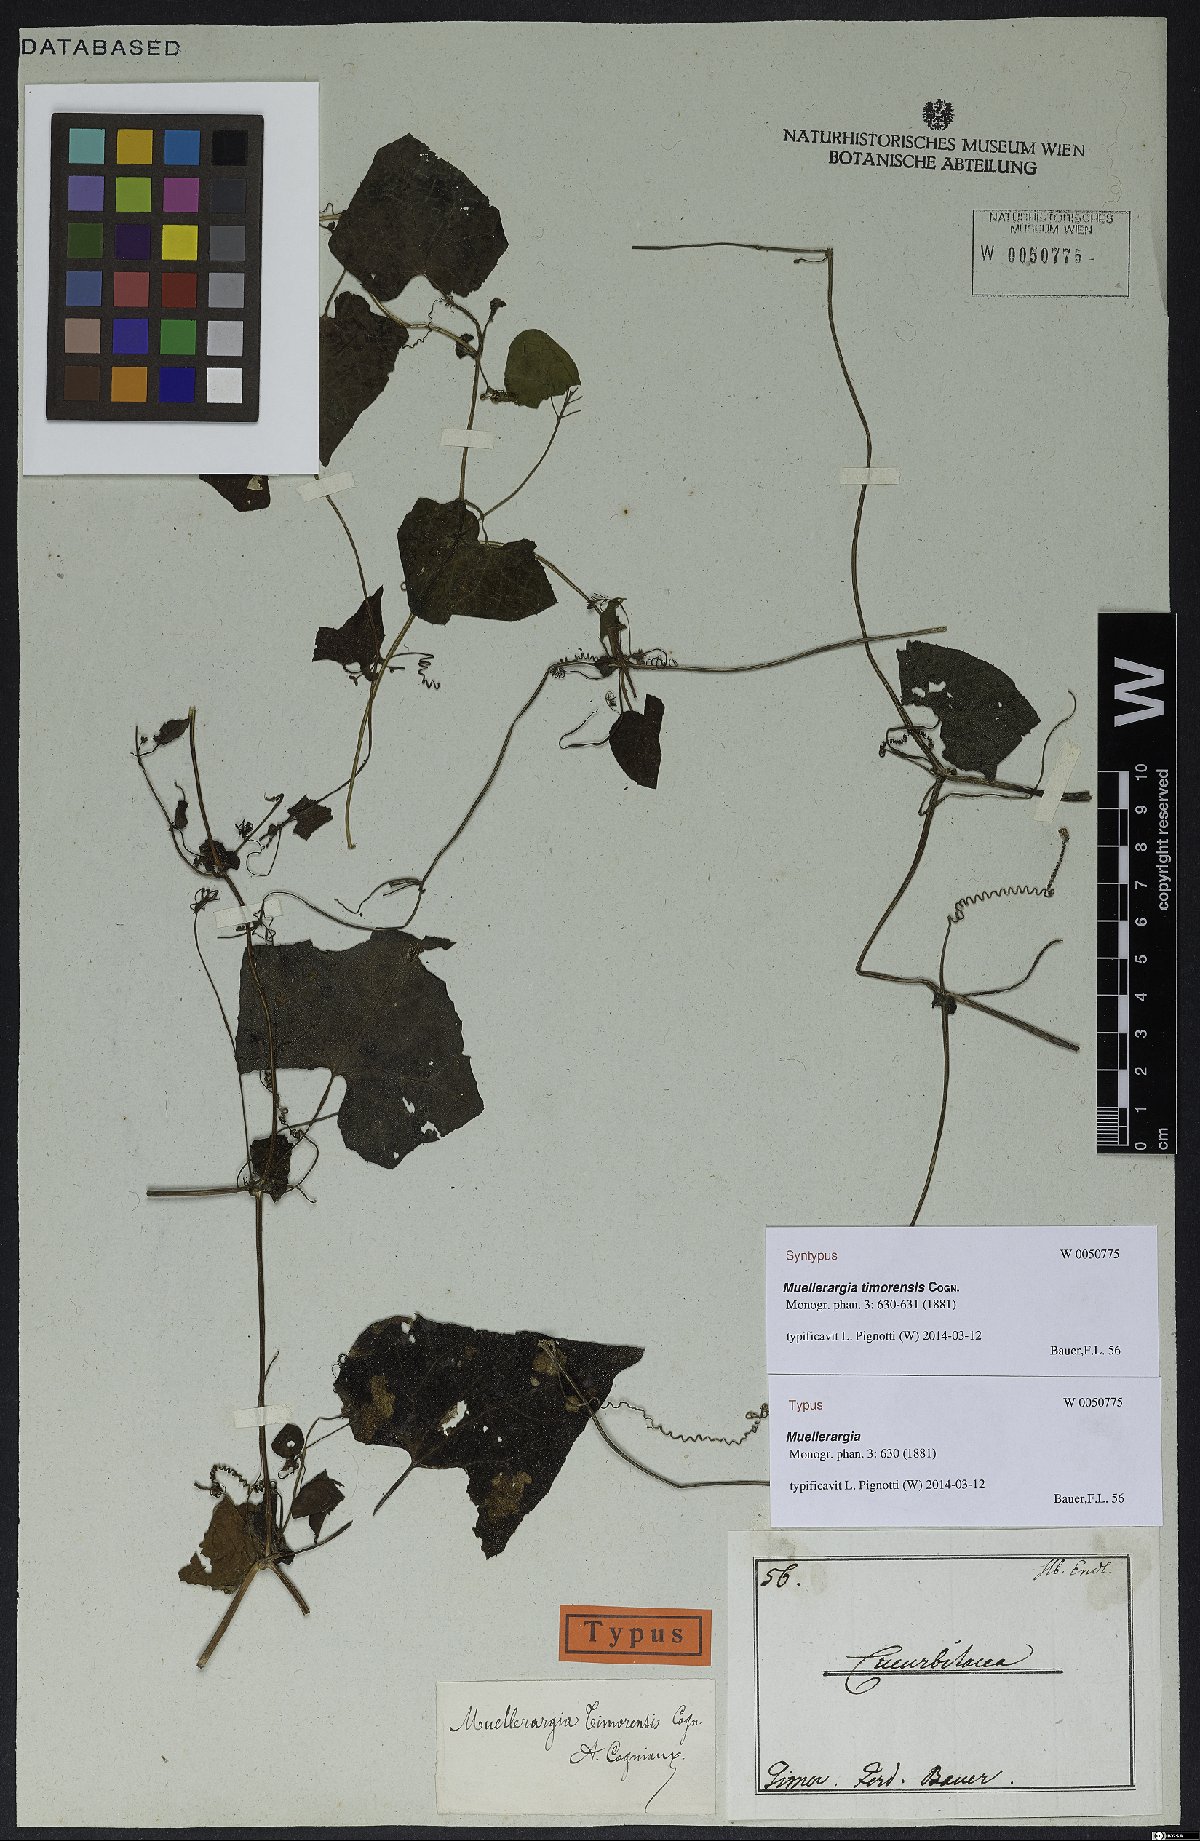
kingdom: Plantae
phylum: Tracheophyta
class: Magnoliopsida
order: Cucurbitales
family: Cucurbitaceae
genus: Muellerargia
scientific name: Muellerargia timorensis
